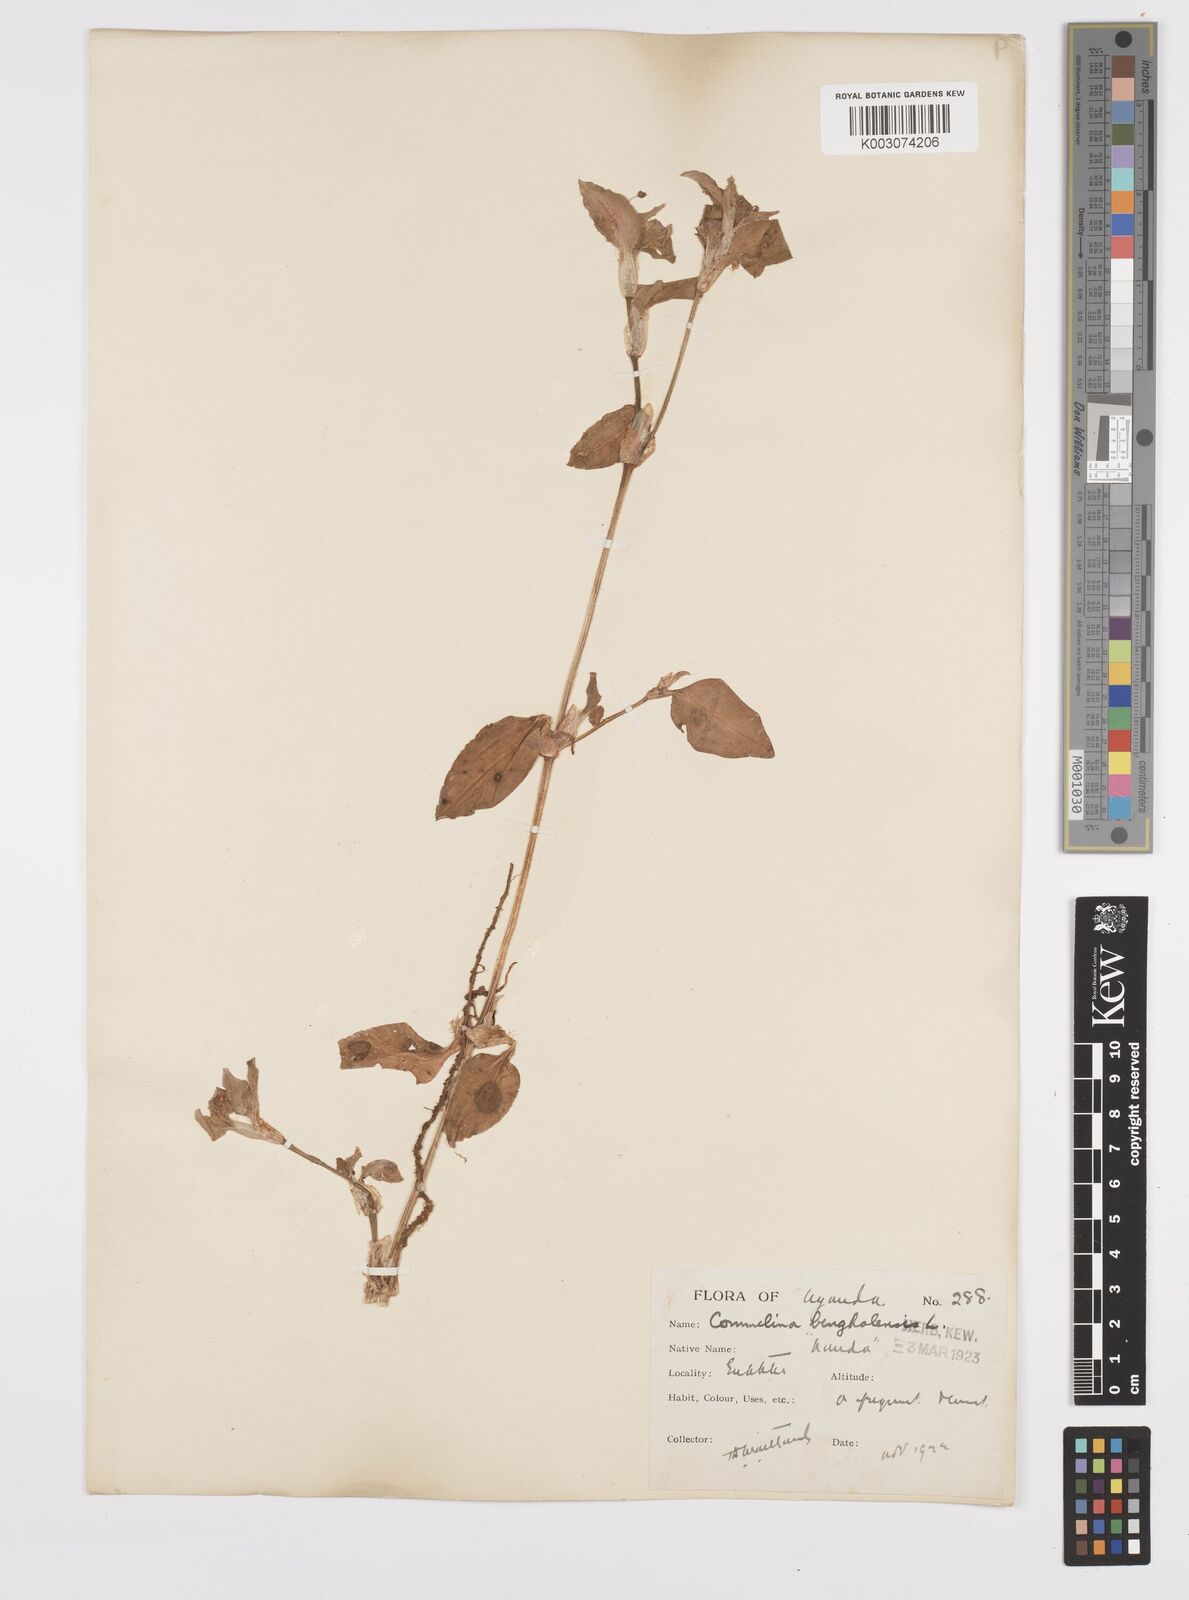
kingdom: Plantae
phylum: Tracheophyta
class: Liliopsida
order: Commelinales
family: Commelinaceae
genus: Commelina
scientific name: Commelina benghalensis
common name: Jio
